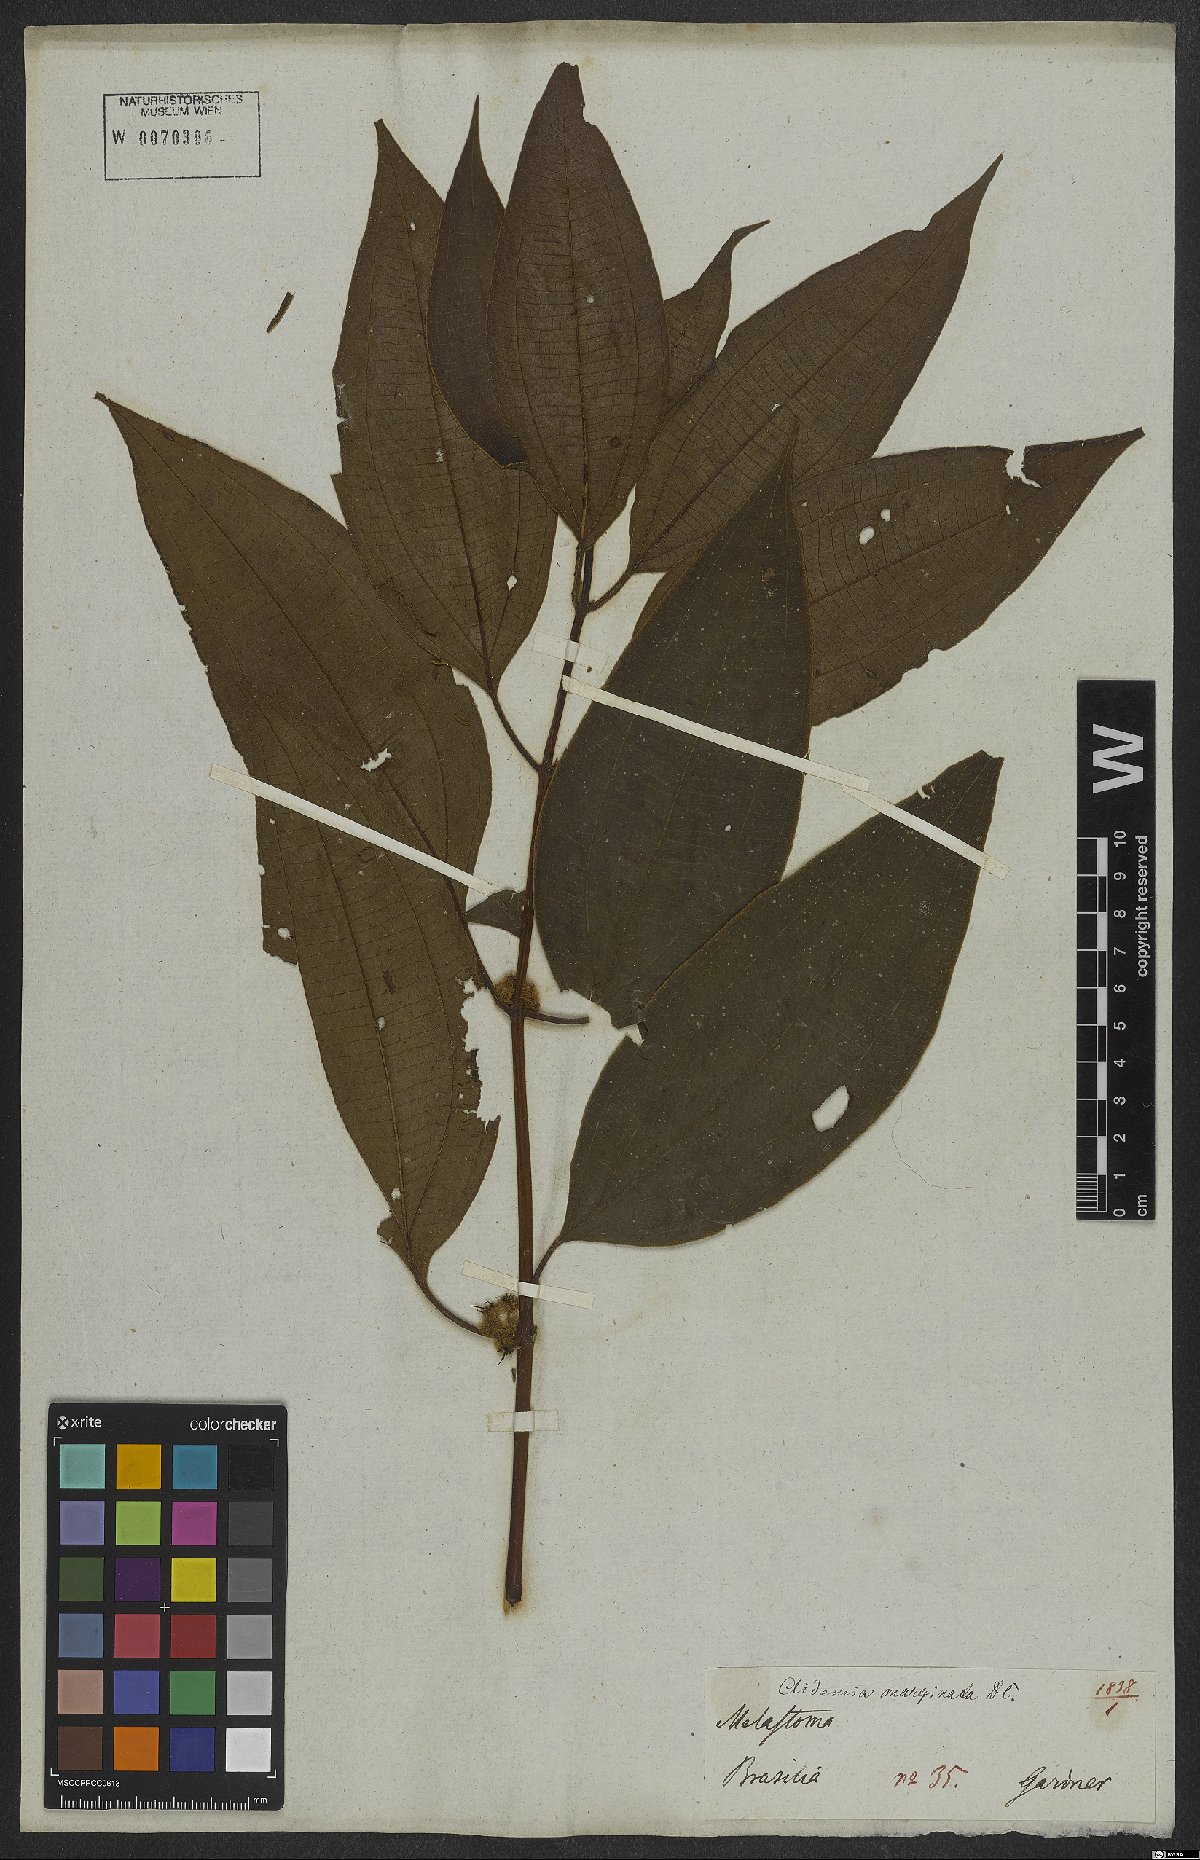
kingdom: Plantae
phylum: Tracheophyta
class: Magnoliopsida
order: Myrtales
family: Melastomataceae
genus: Miconia
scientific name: Miconia leamarginata
